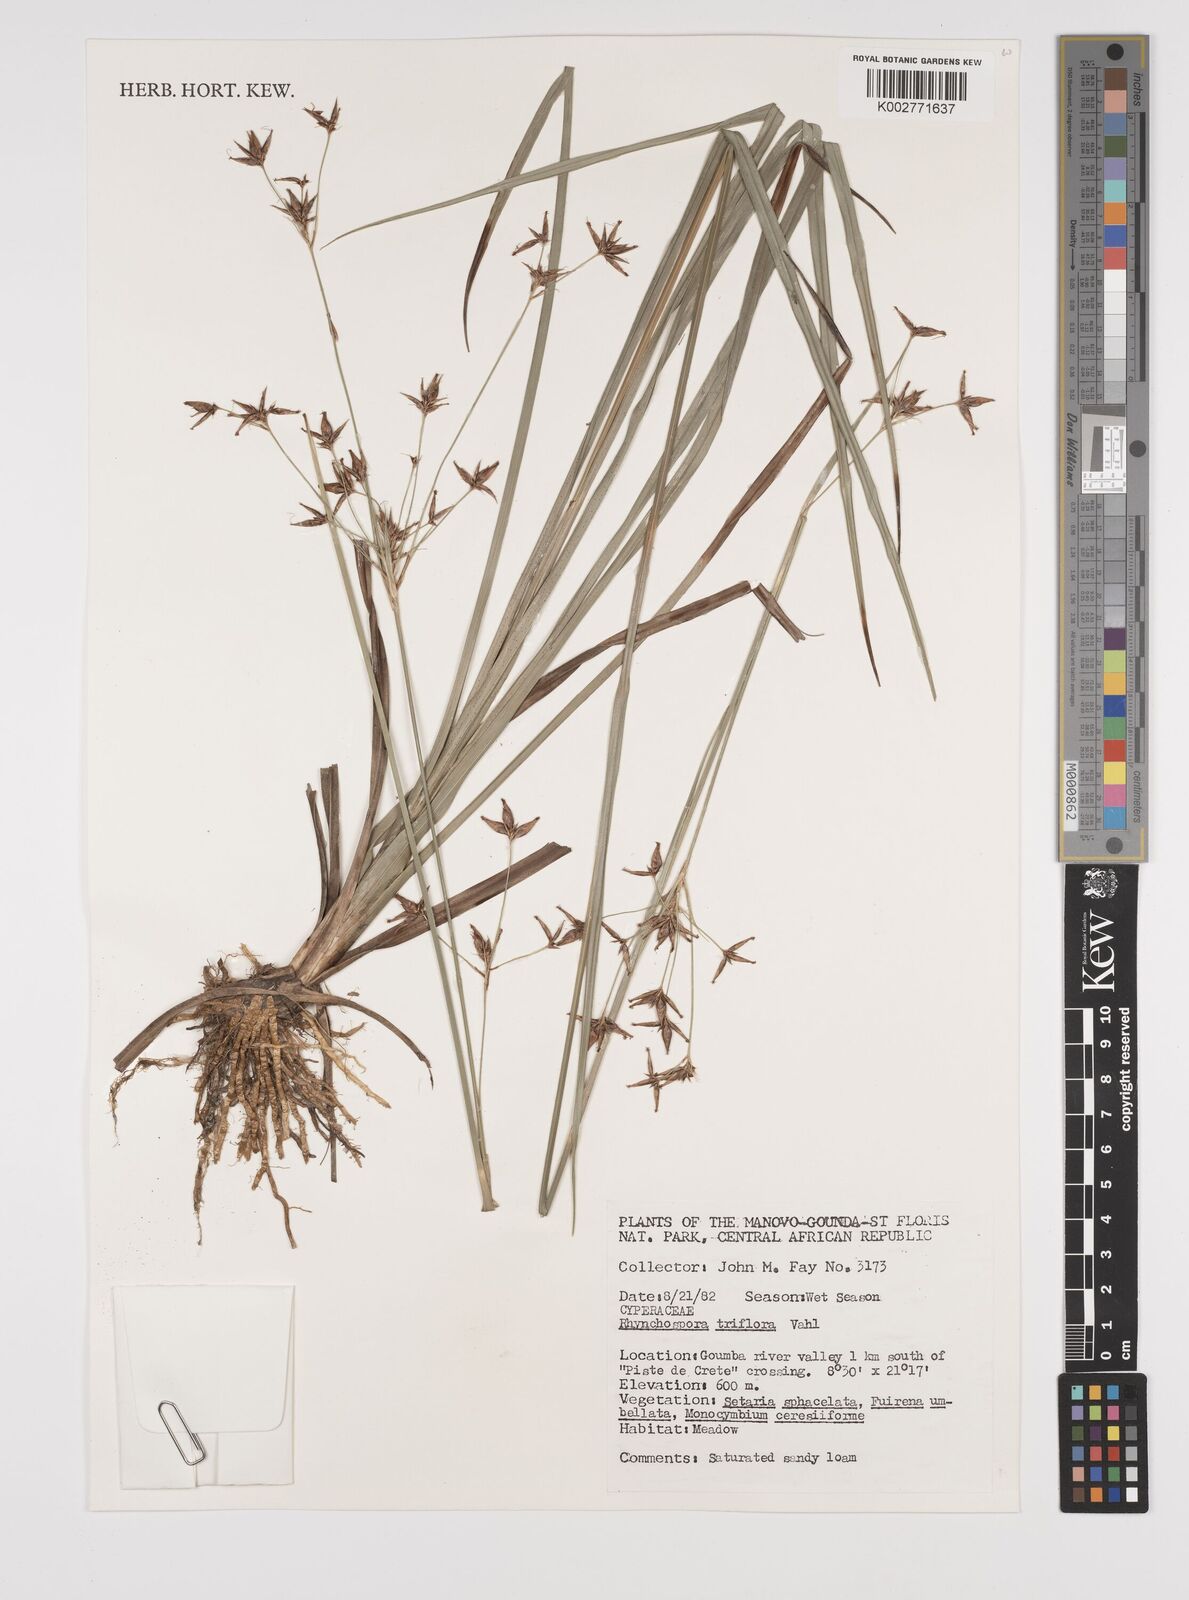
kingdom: Plantae
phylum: Tracheophyta
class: Liliopsida
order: Poales
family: Cyperaceae
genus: Rhynchospora
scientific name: Rhynchospora triflora
